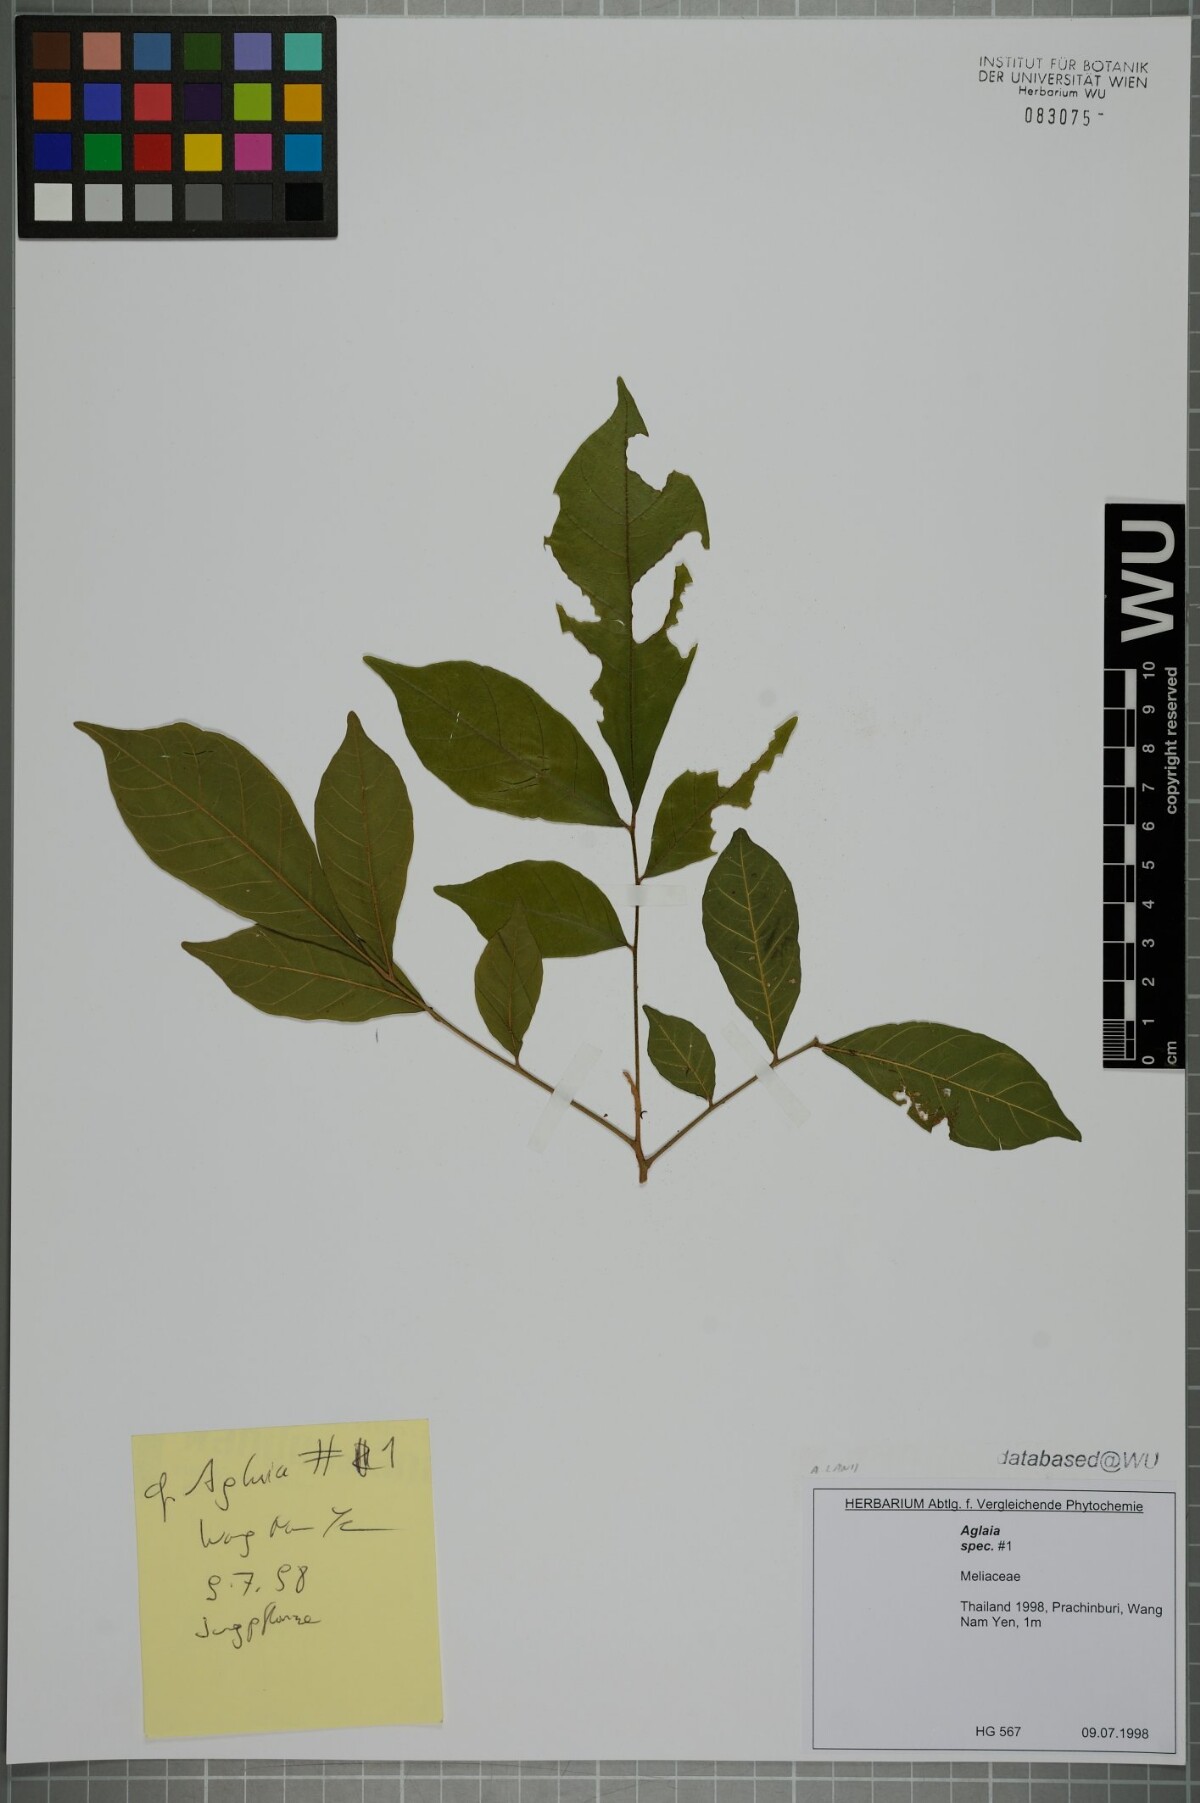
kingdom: Plantae
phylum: Tracheophyta
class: Magnoliopsida
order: Sapindales
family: Meliaceae
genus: Aglaia
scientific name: Aglaia lawii
